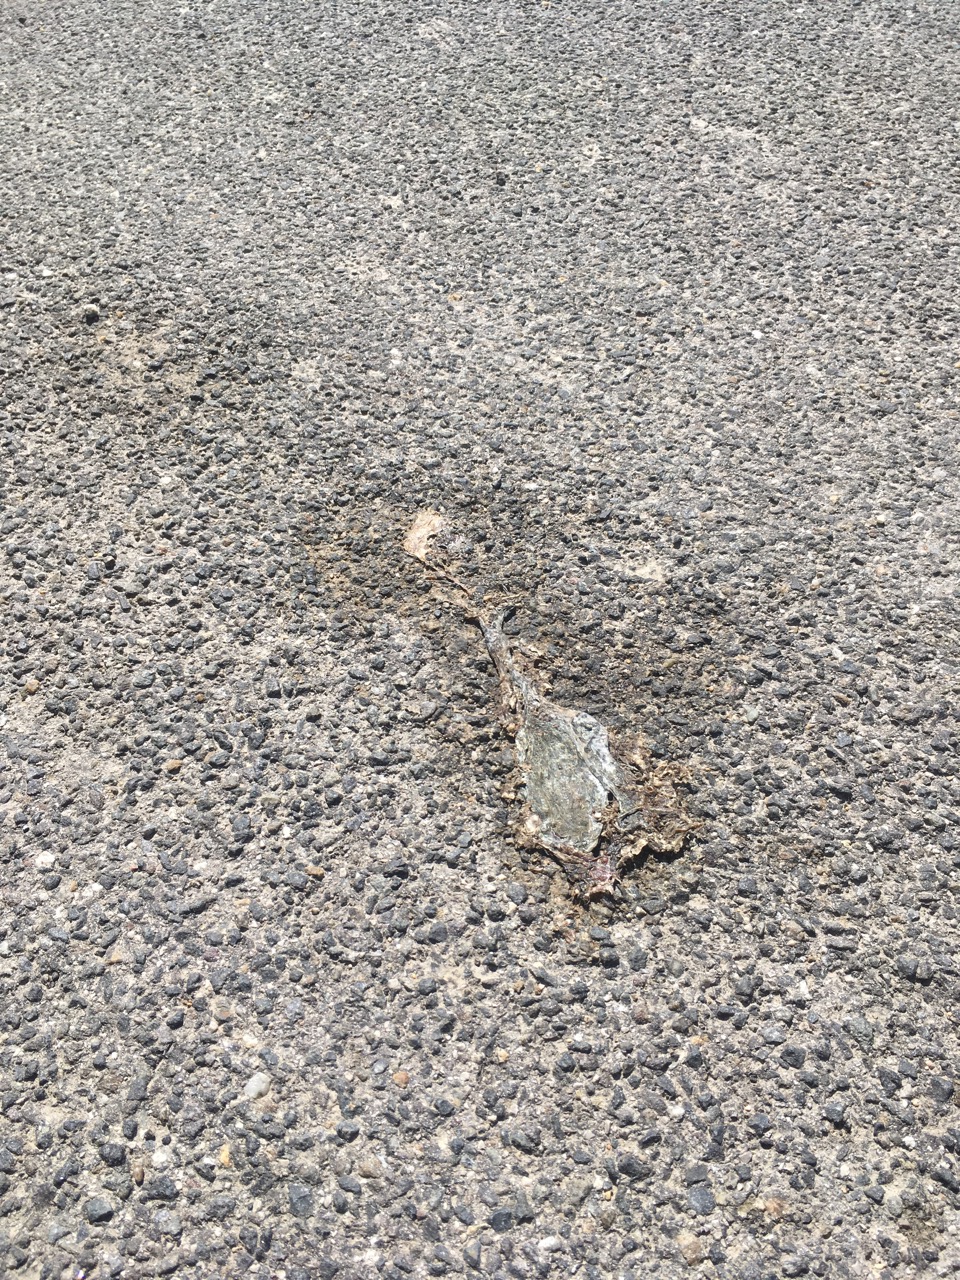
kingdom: Animalia
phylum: Chordata
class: Amphibia
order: Anura
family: Bufonidae
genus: Bufotes
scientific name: Bufotes viridis
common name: European green toad
